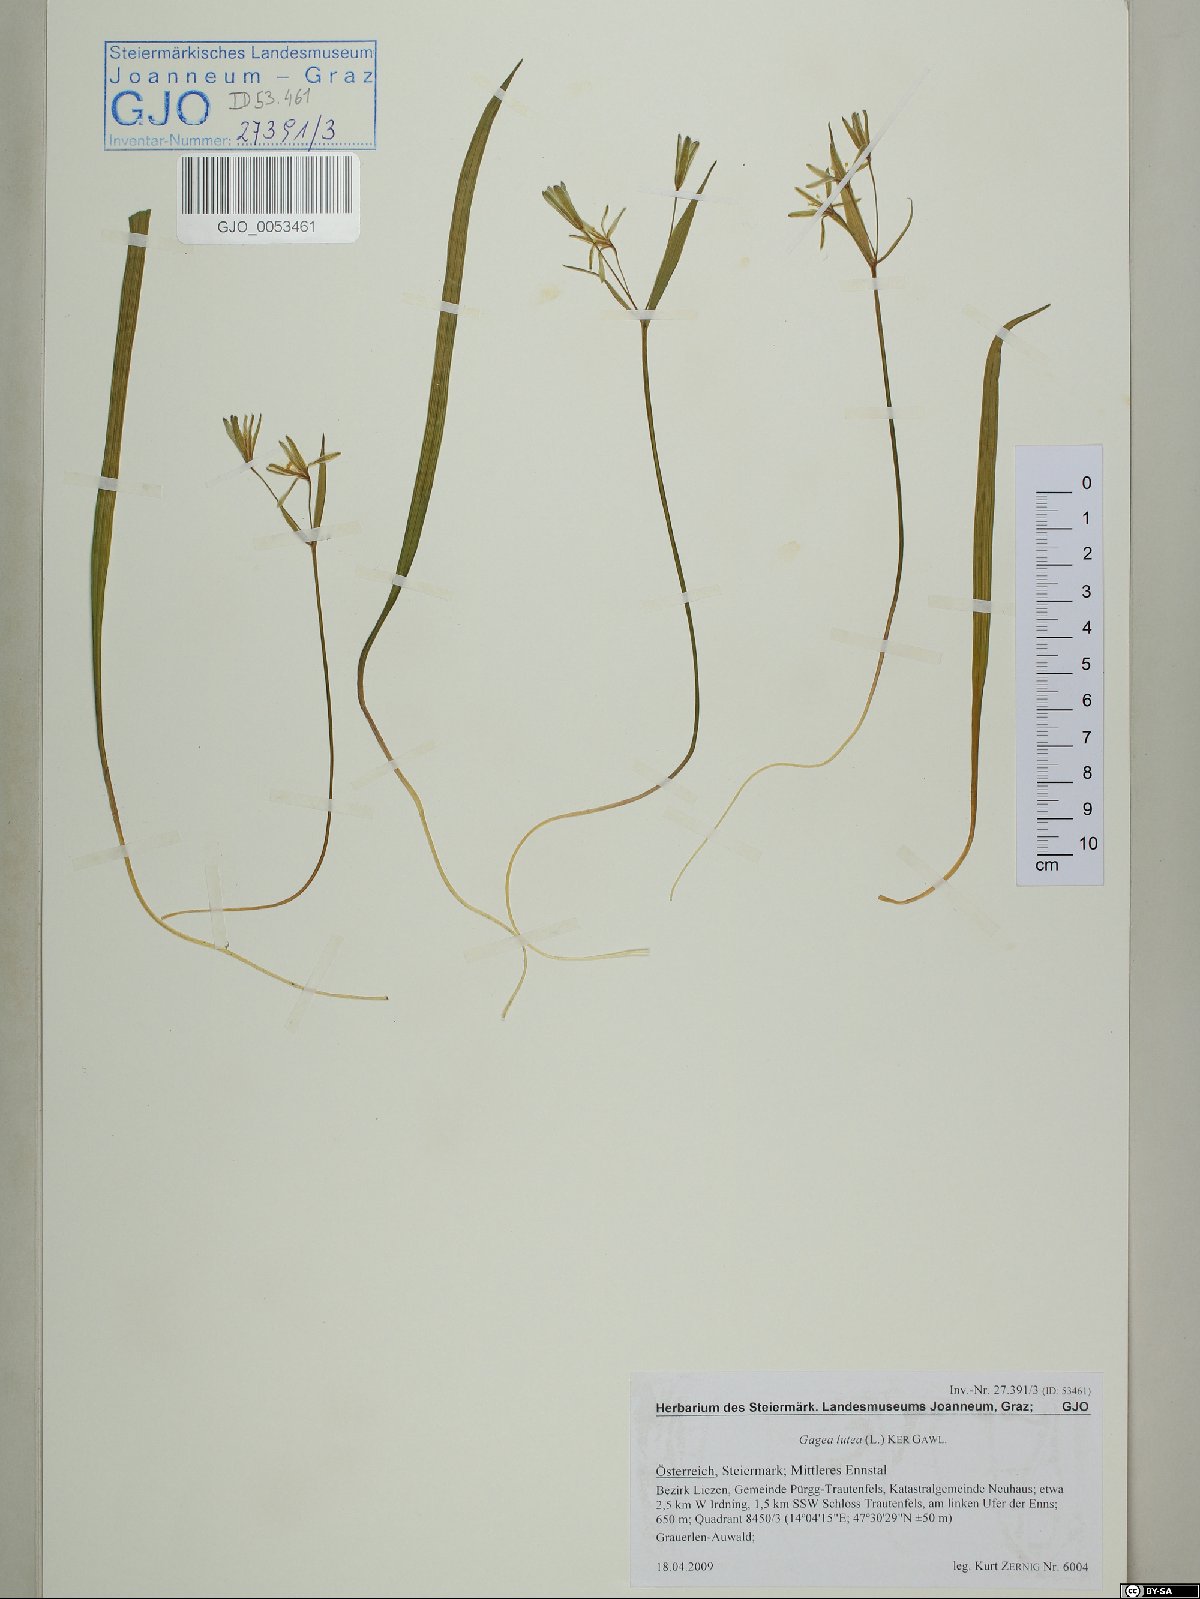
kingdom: Plantae
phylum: Tracheophyta
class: Liliopsida
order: Liliales
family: Liliaceae
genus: Gagea
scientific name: Gagea lutea
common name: Yellow star-of-bethlehem
